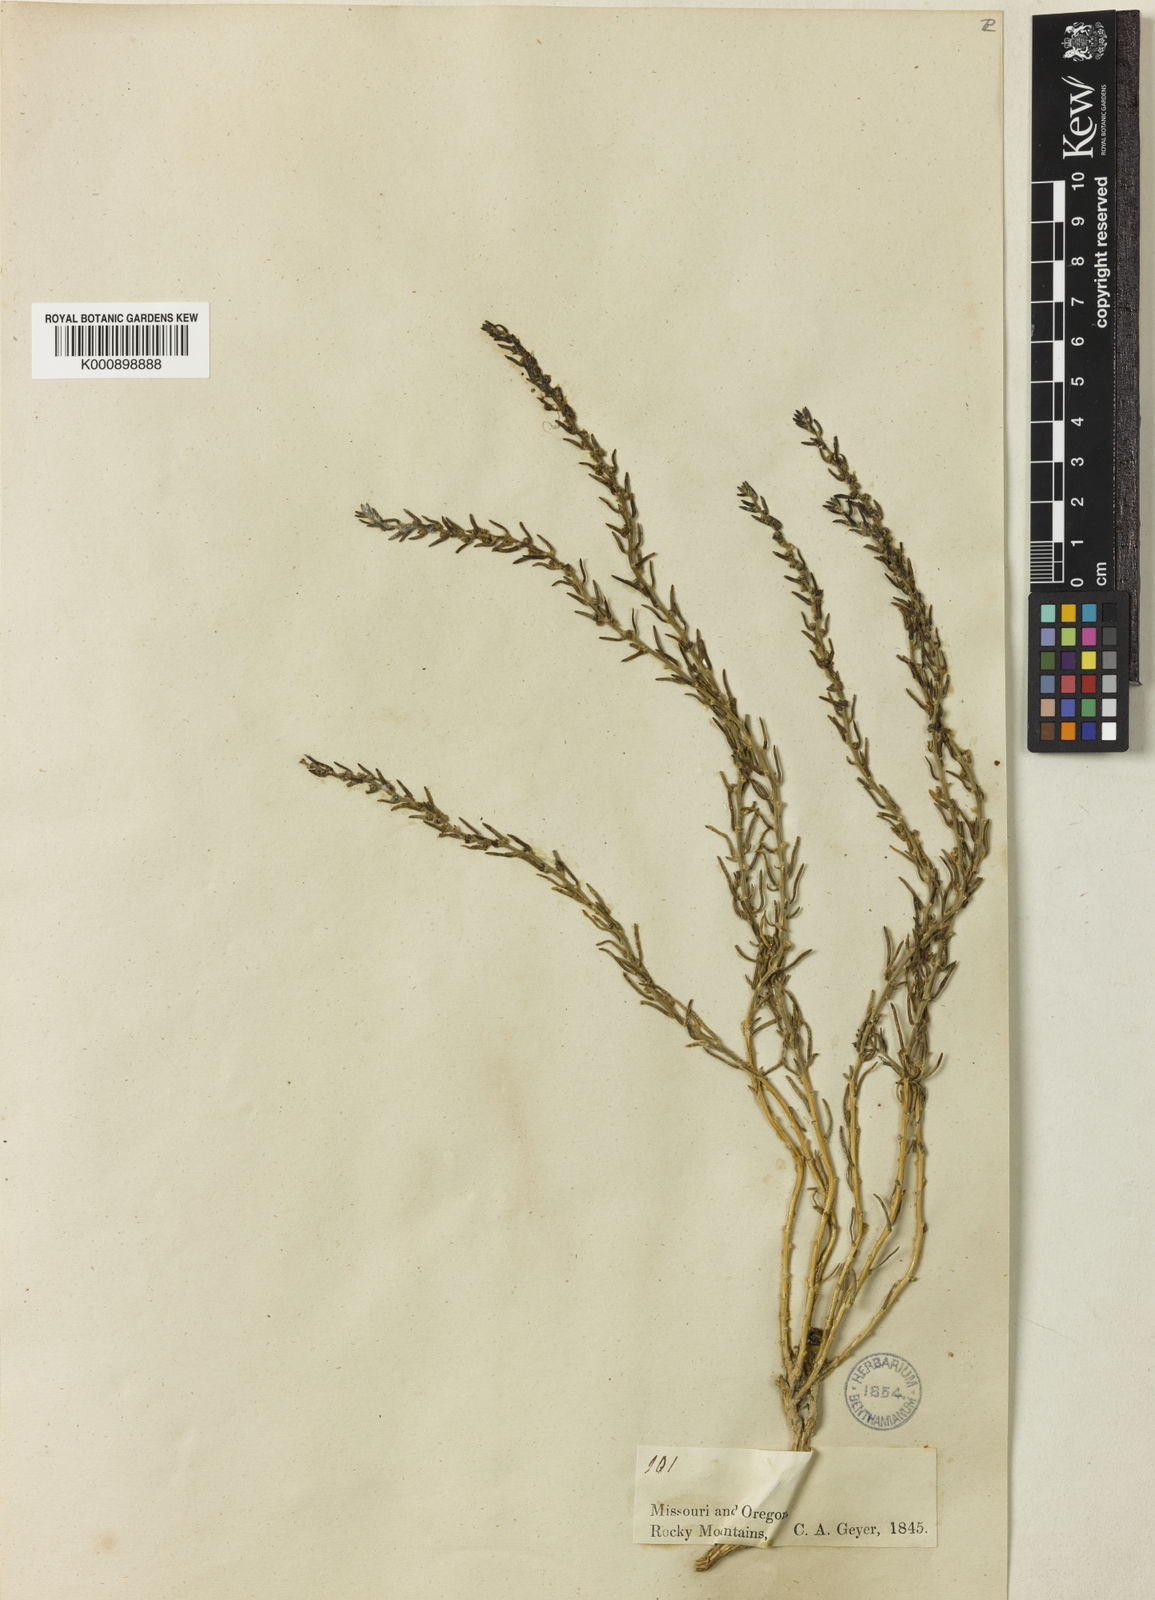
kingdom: Plantae
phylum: Tracheophyta
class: Magnoliopsida
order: Caryophyllales
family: Amaranthaceae
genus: Neokochia
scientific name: Neokochia americana
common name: Perennial summer-cypress
